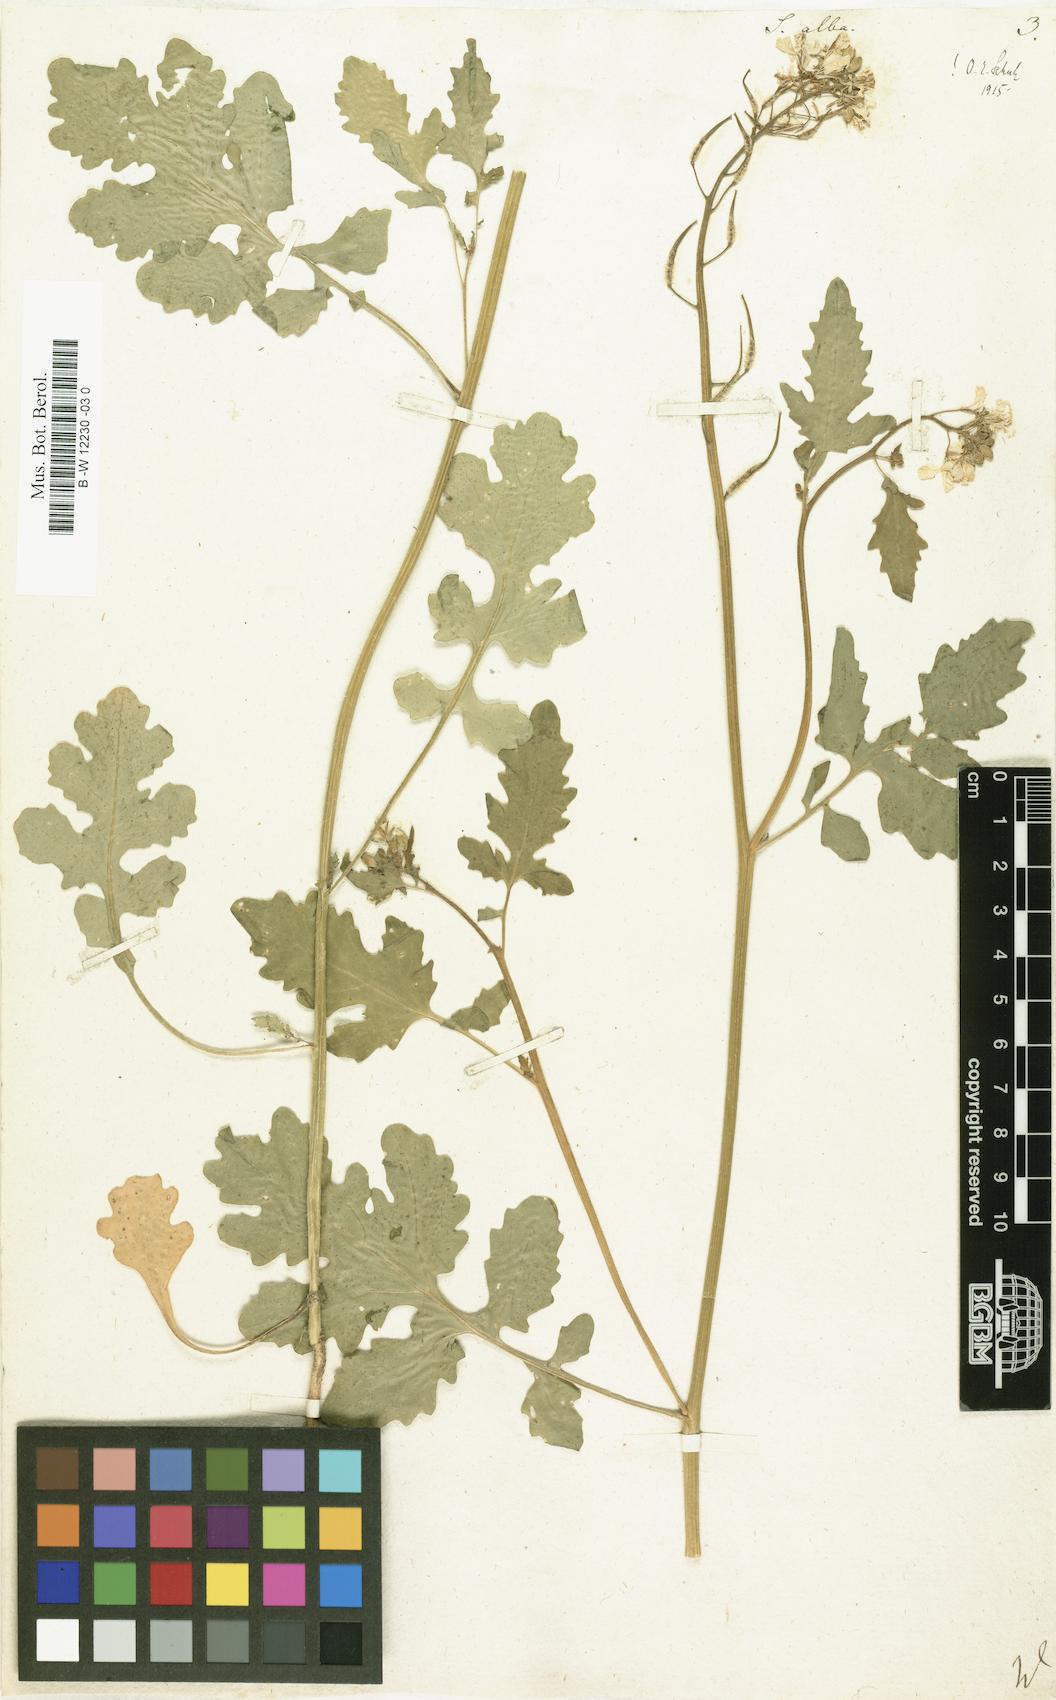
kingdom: Plantae
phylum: Tracheophyta
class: Magnoliopsida
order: Brassicales
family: Brassicaceae
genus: Sinapis
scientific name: Sinapis alba
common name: White mustard
